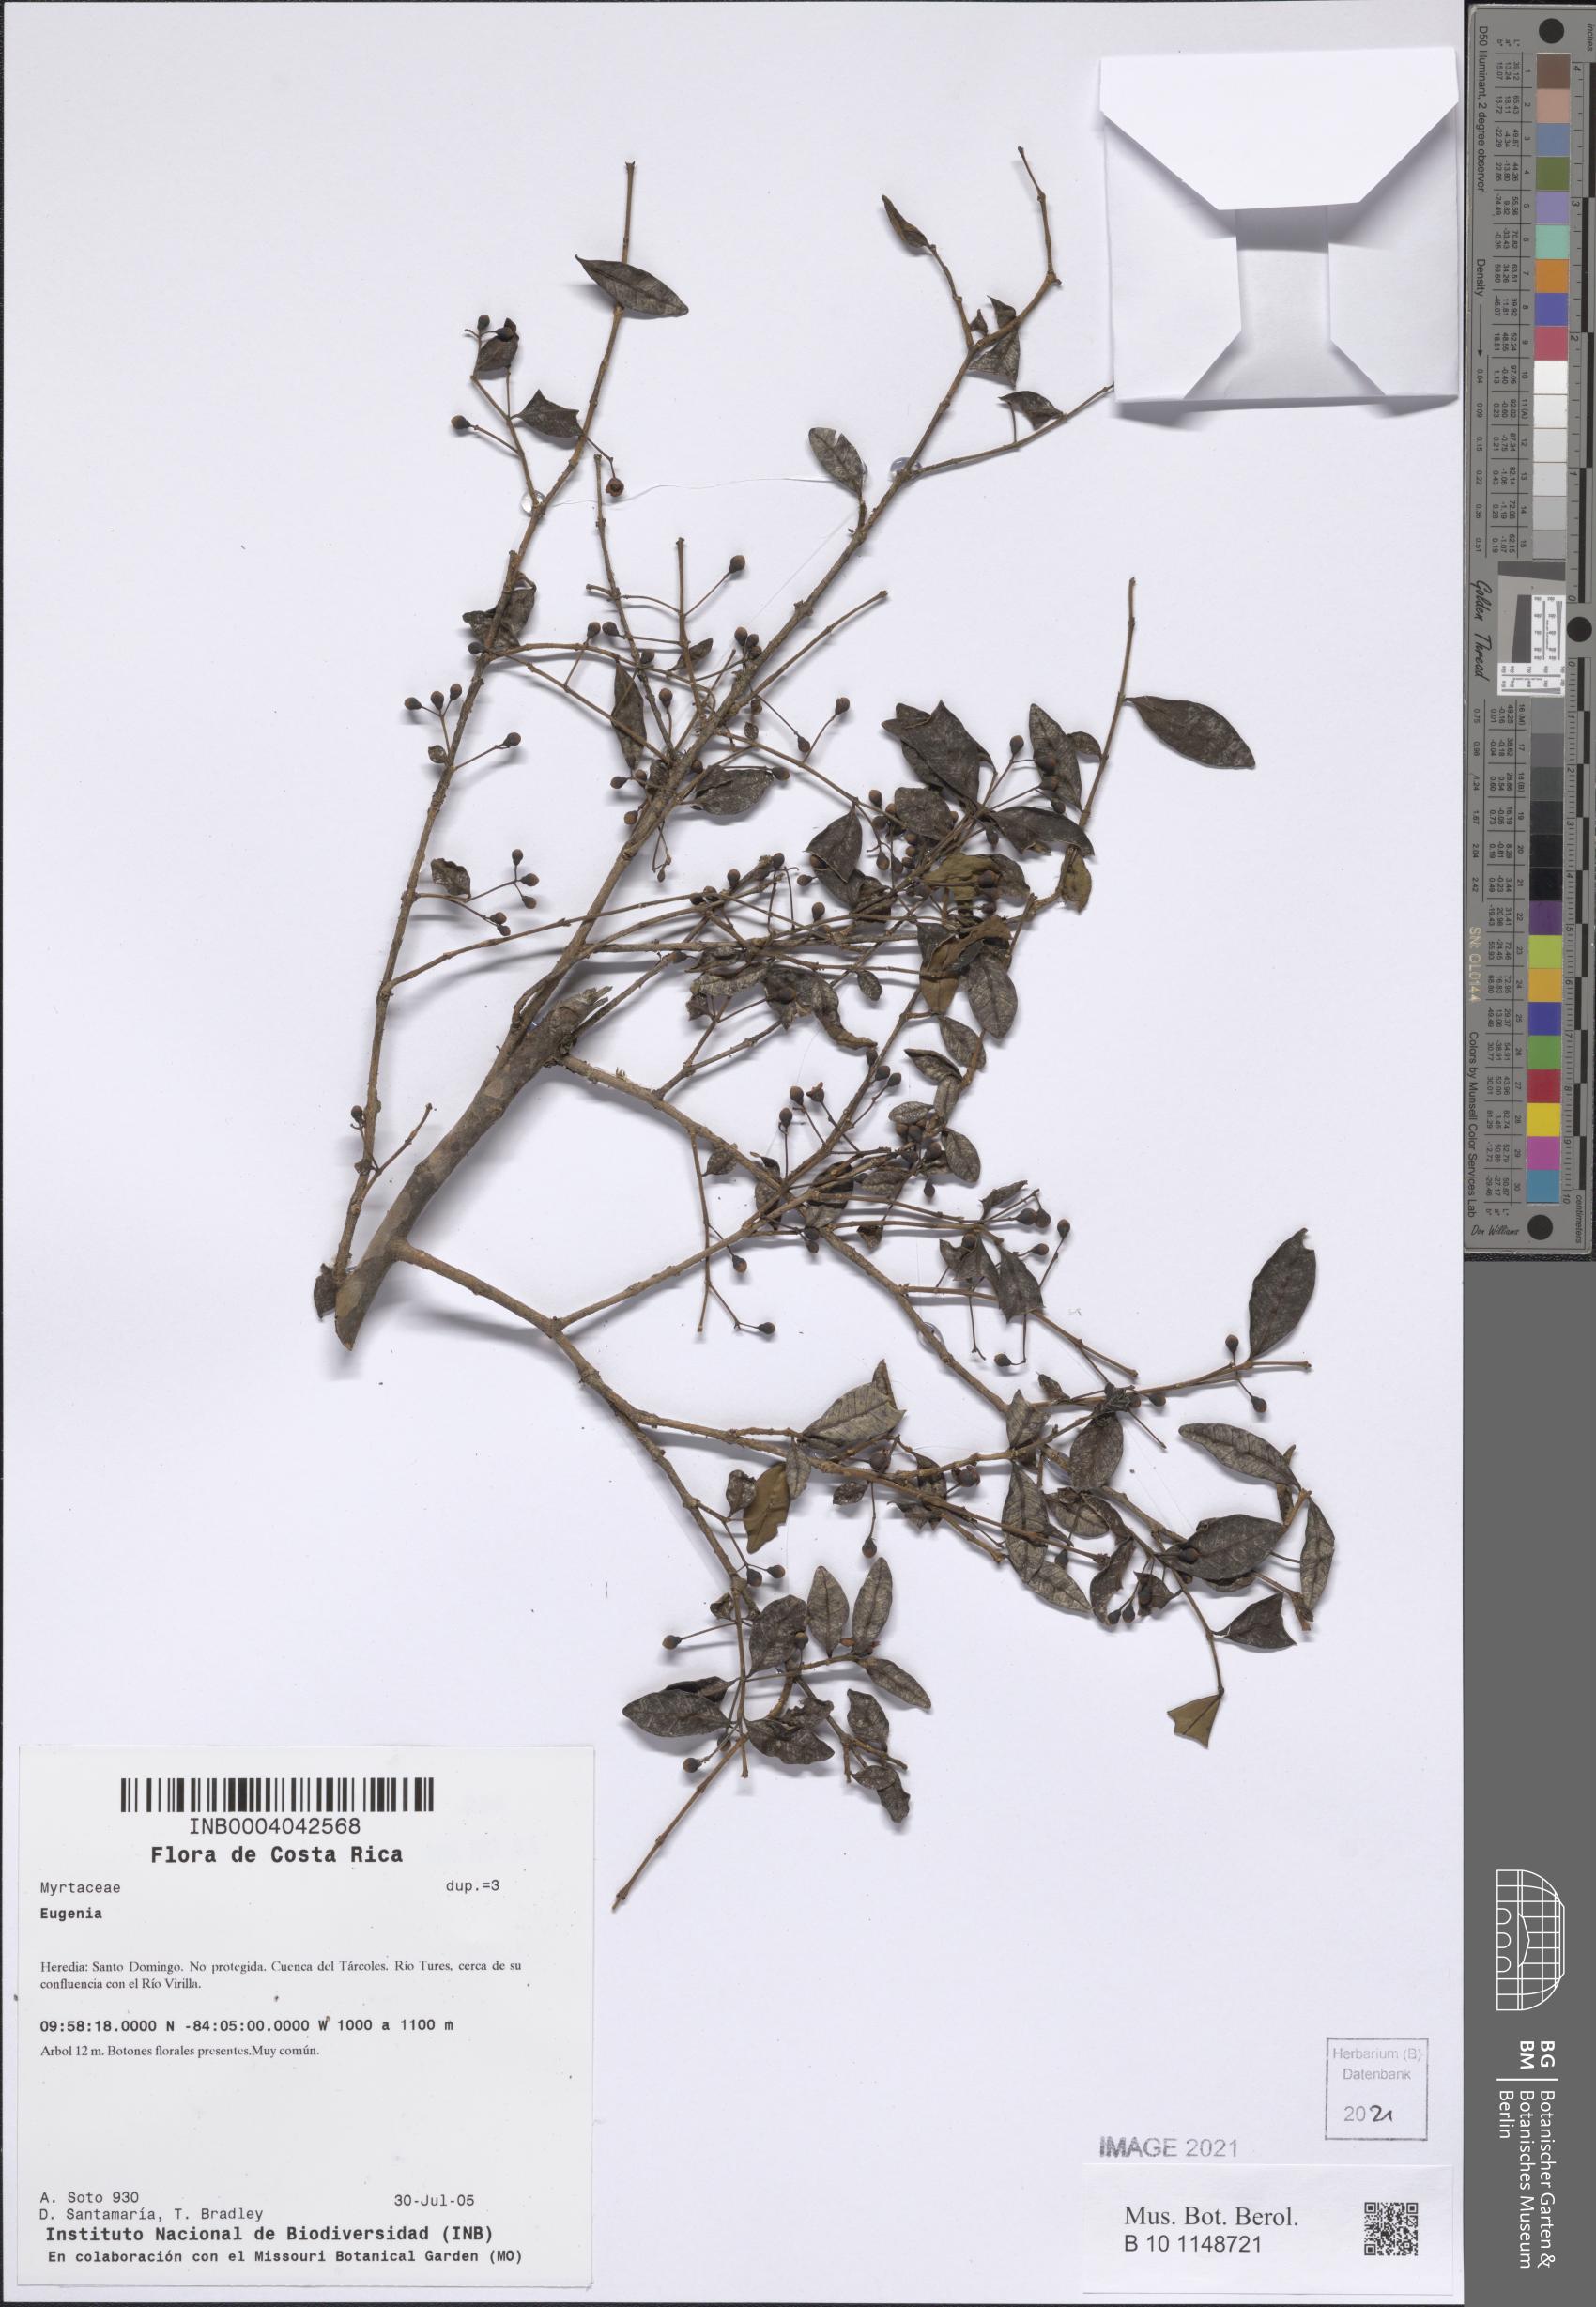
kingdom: Plantae
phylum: Tracheophyta
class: Magnoliopsida
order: Myrtales
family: Myrtaceae
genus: Eugenia
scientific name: Eugenia
